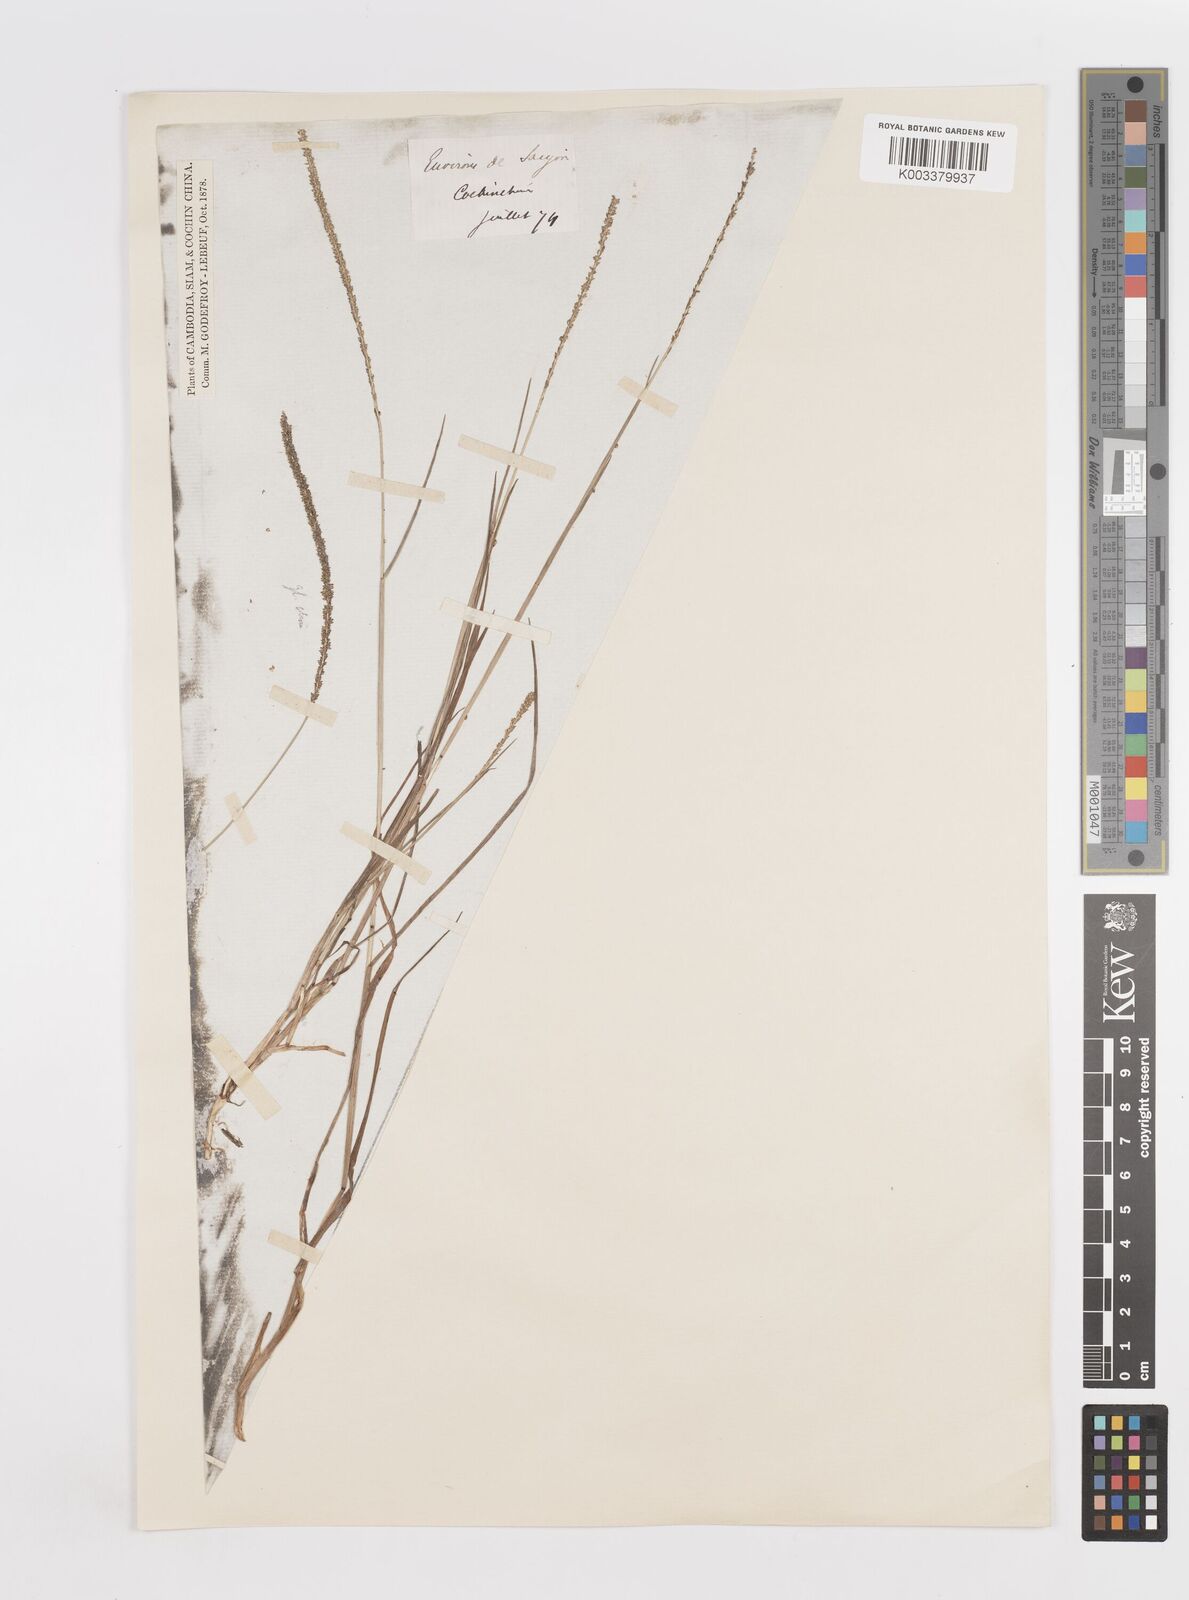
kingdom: Plantae
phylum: Tracheophyta
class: Liliopsida
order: Poales
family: Poaceae
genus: Sacciolepis
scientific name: Sacciolepis myosuroides
